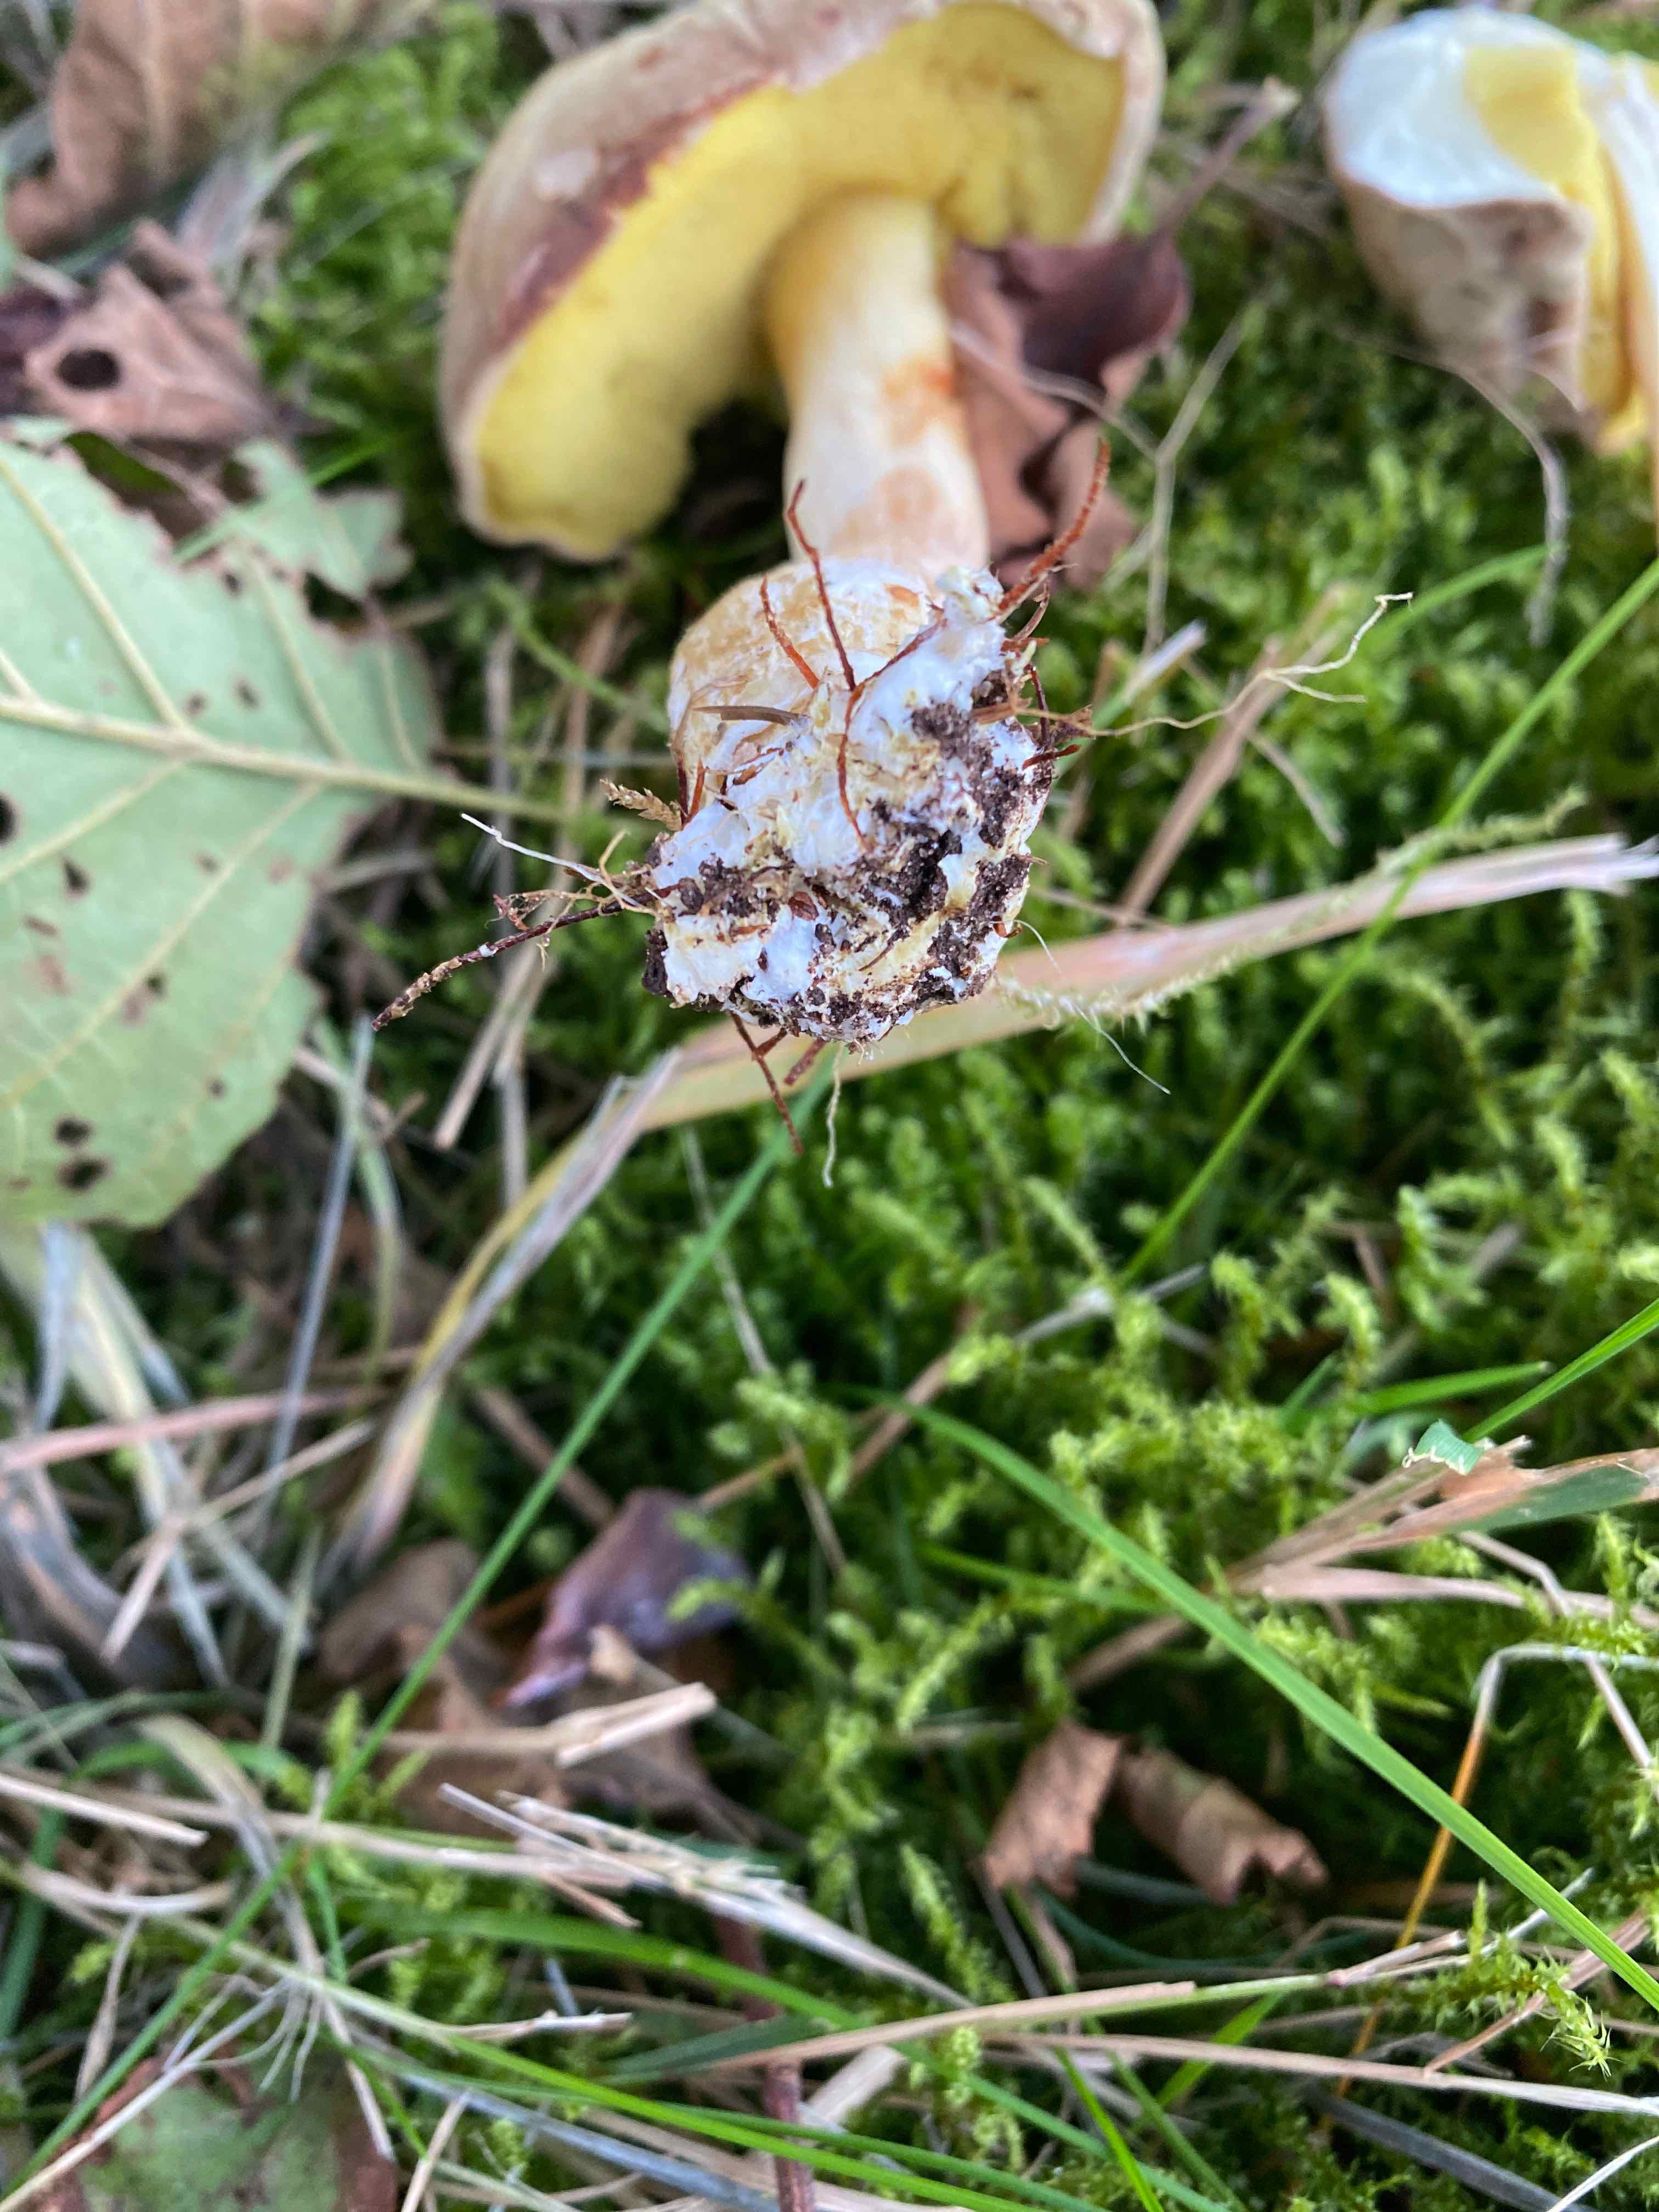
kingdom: Fungi
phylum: Basidiomycota
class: Agaricomycetes
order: Boletales
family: Boletaceae
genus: Xerocomus
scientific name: Xerocomus
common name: filtrørhat
